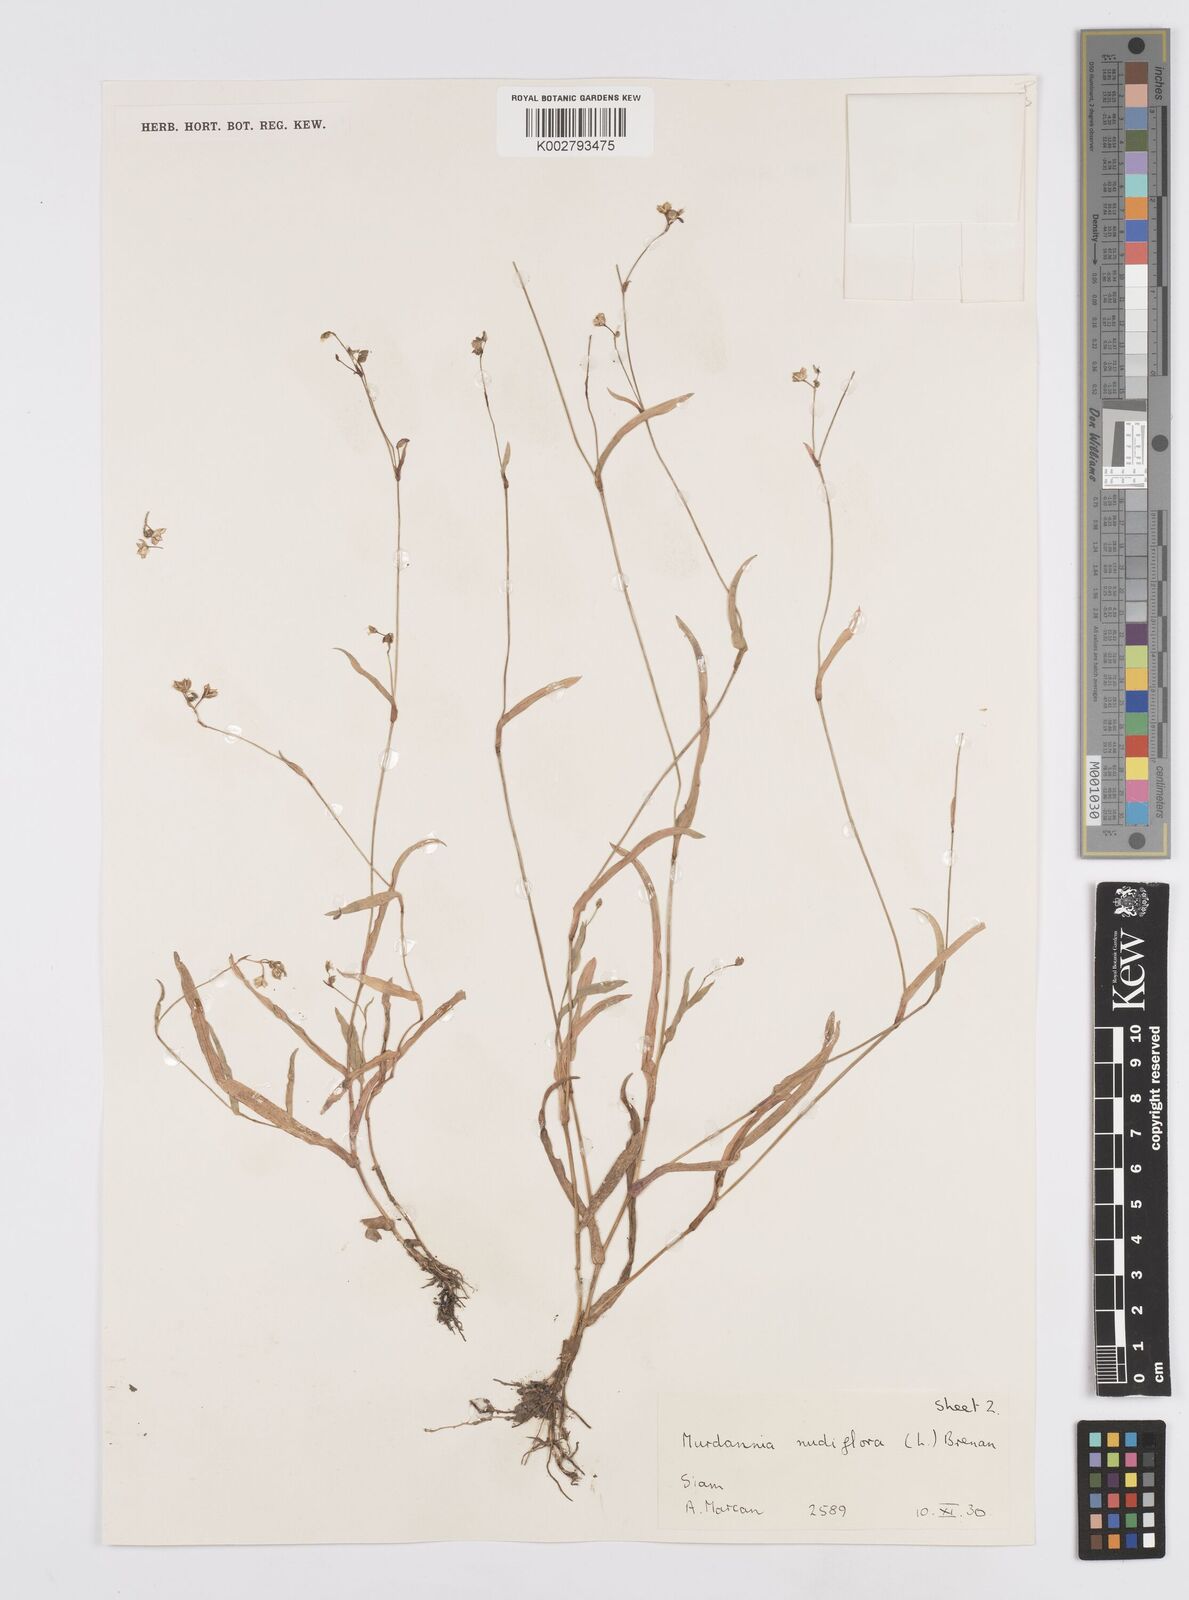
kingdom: Plantae
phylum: Tracheophyta
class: Liliopsida
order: Commelinales
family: Commelinaceae
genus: Murdannia
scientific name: Murdannia nudiflora
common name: Nakedstem dewflower
